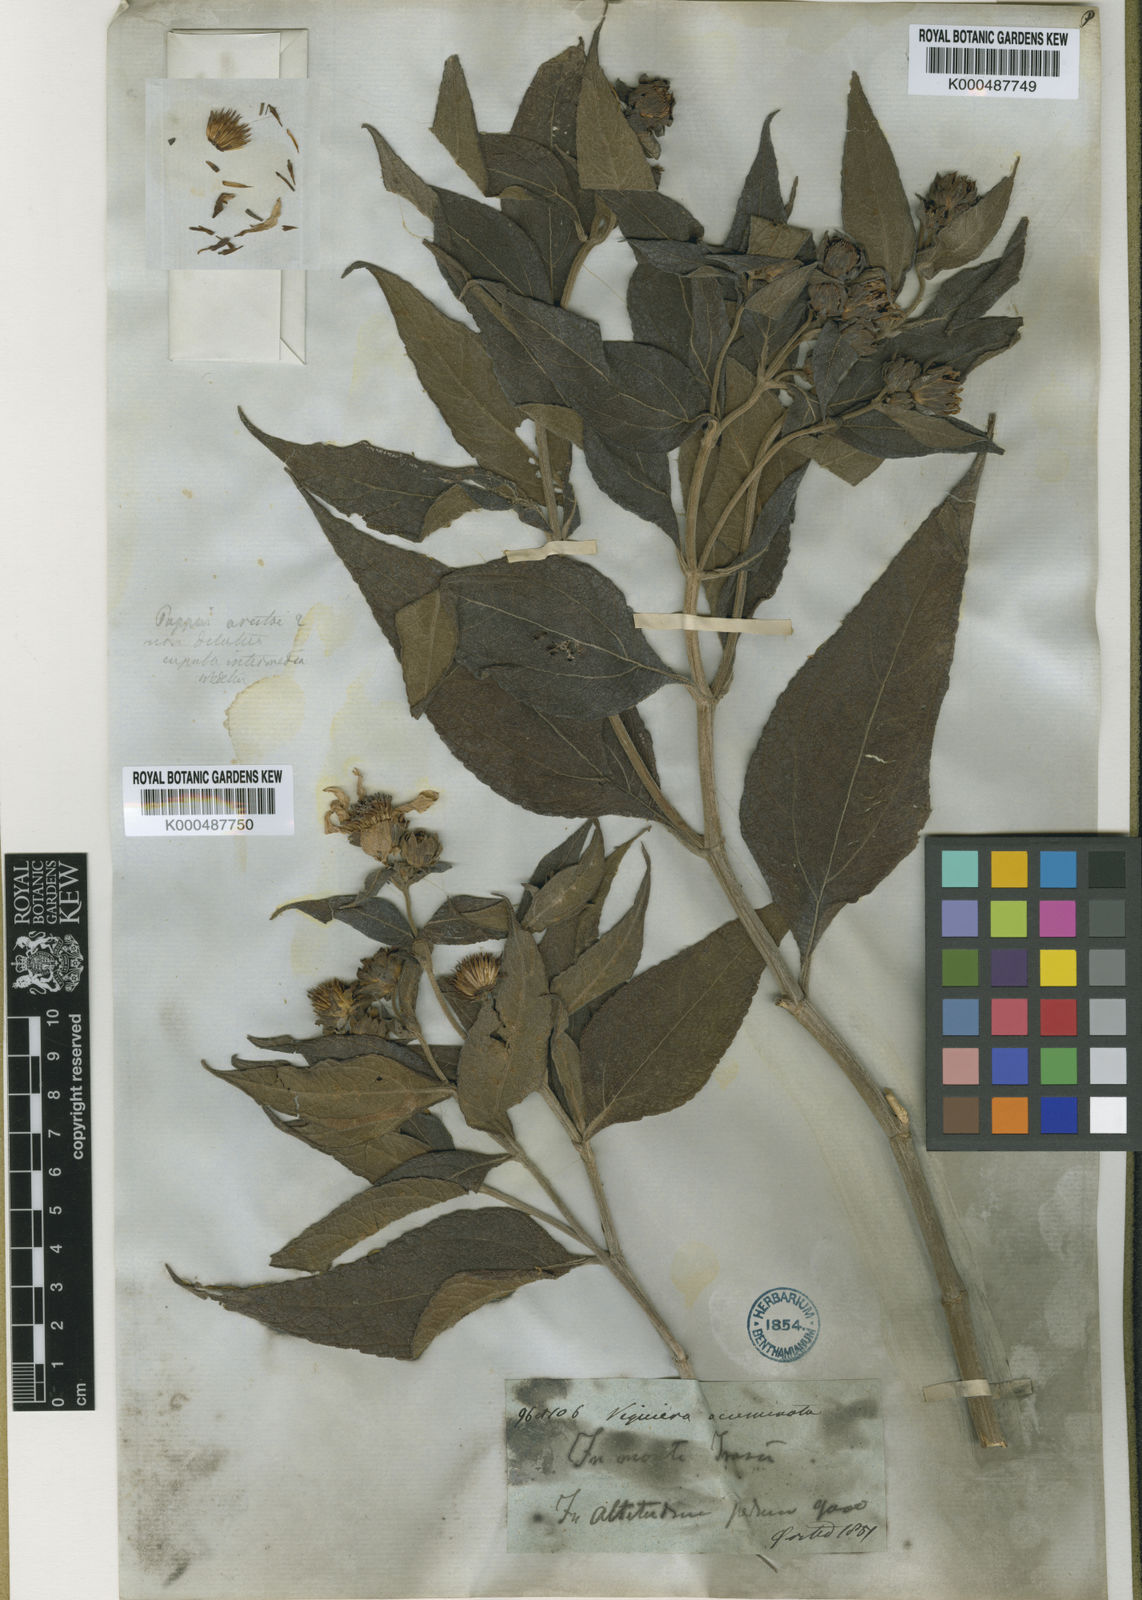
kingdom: Plantae
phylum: Tracheophyta
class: Magnoliopsida
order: Asterales
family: Asteraceae
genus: Oyedaea
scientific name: Oyedaea verbesinoides
